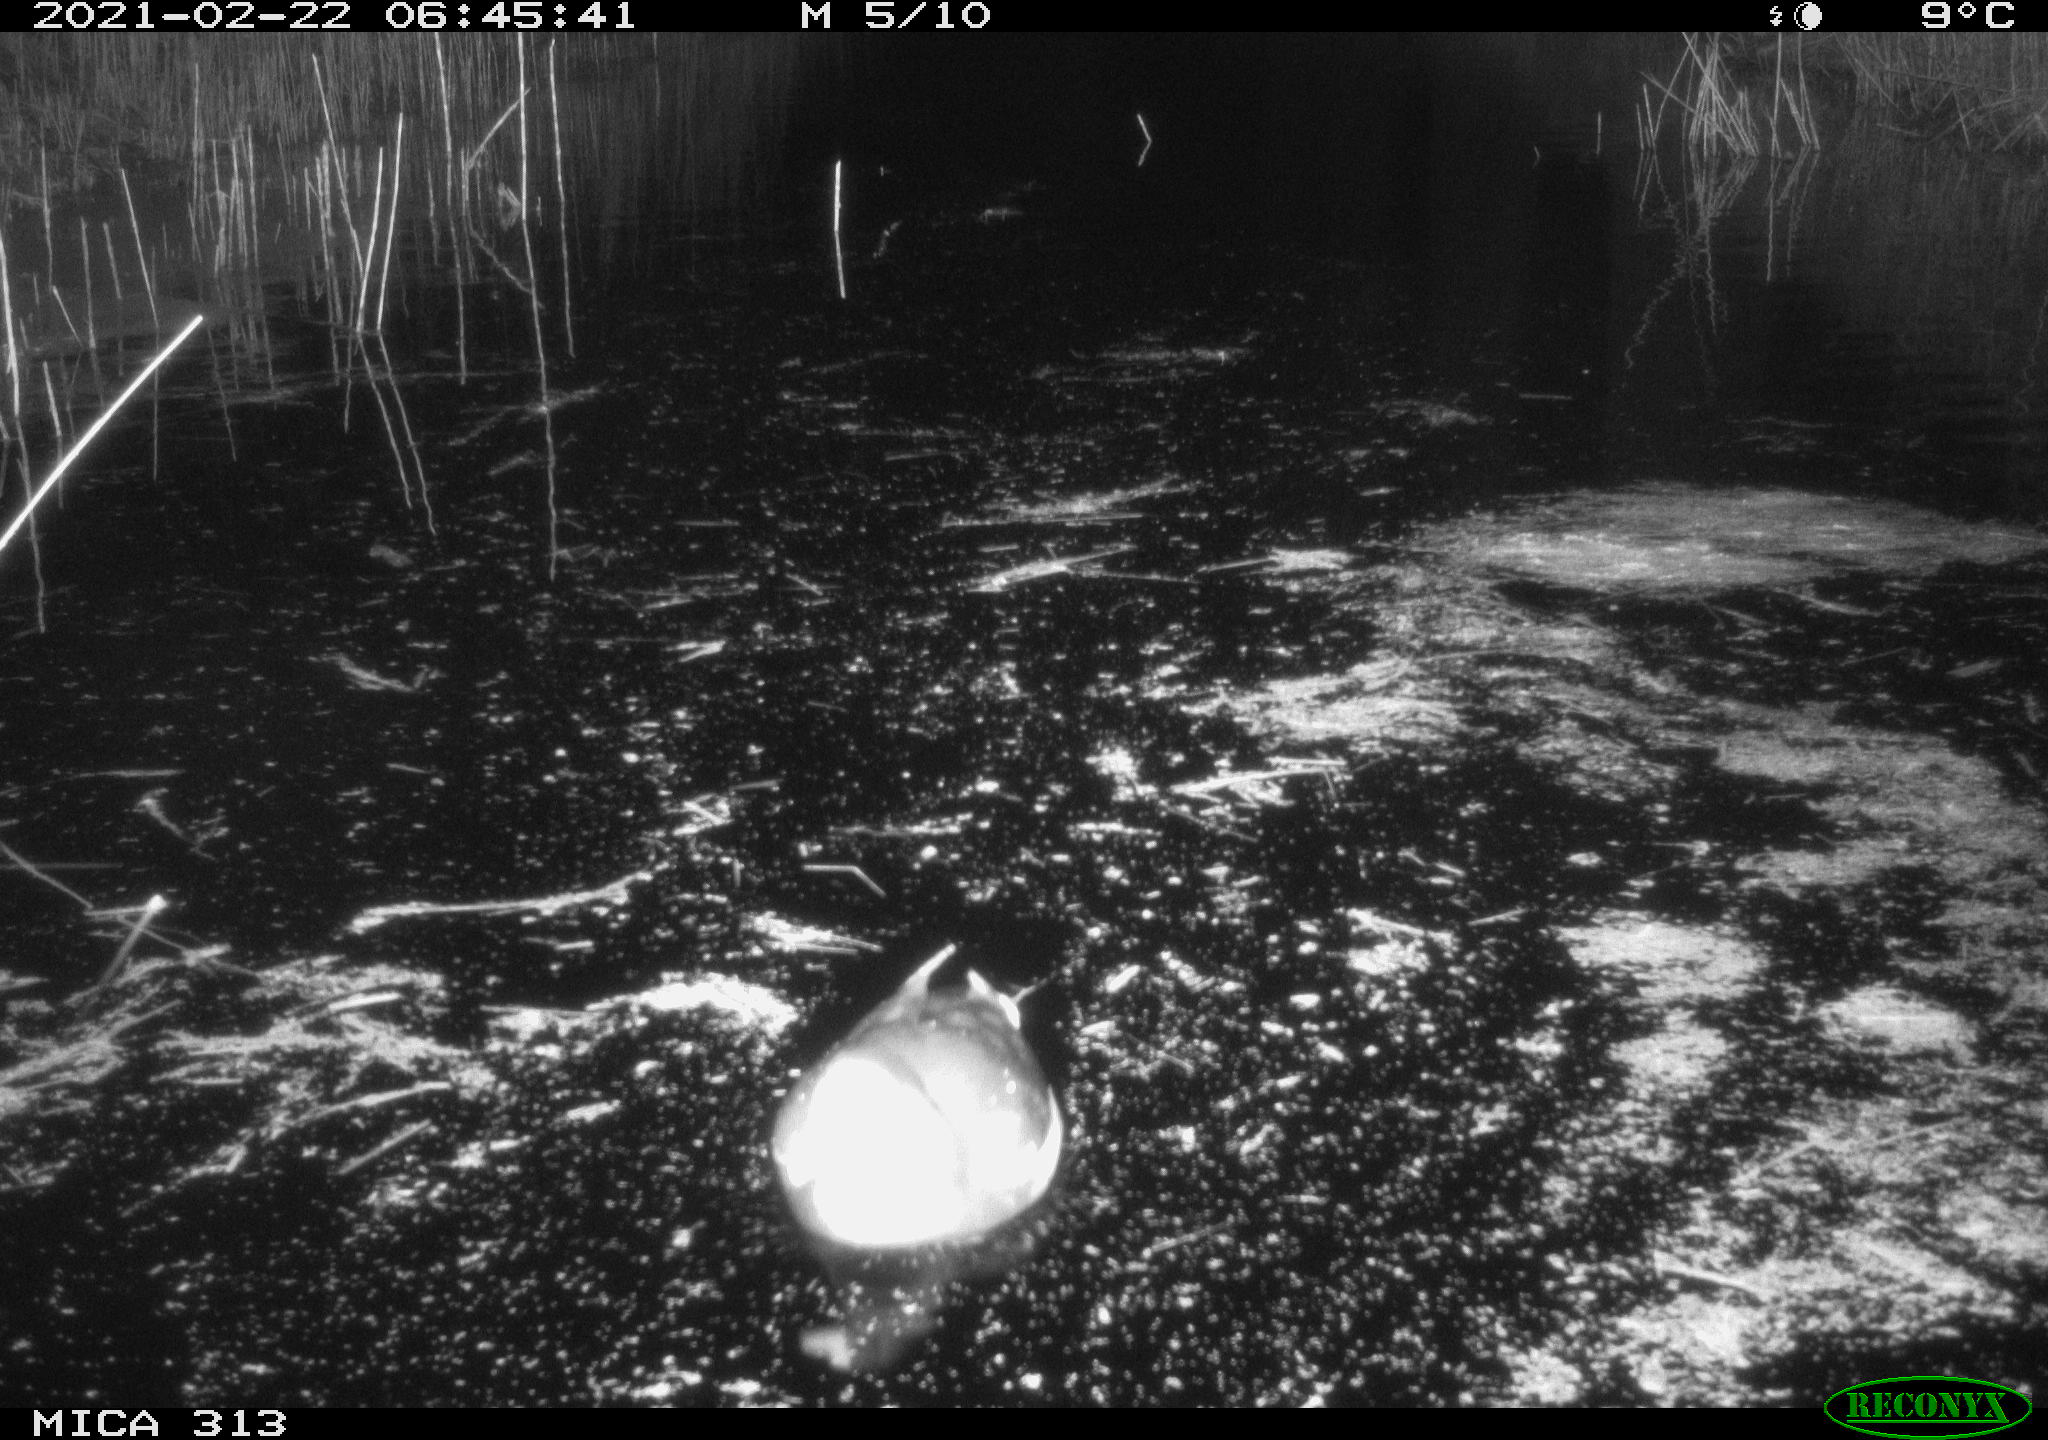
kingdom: Animalia
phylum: Chordata
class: Aves
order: Gruiformes
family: Rallidae
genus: Fulica
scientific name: Fulica atra
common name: Eurasian coot
